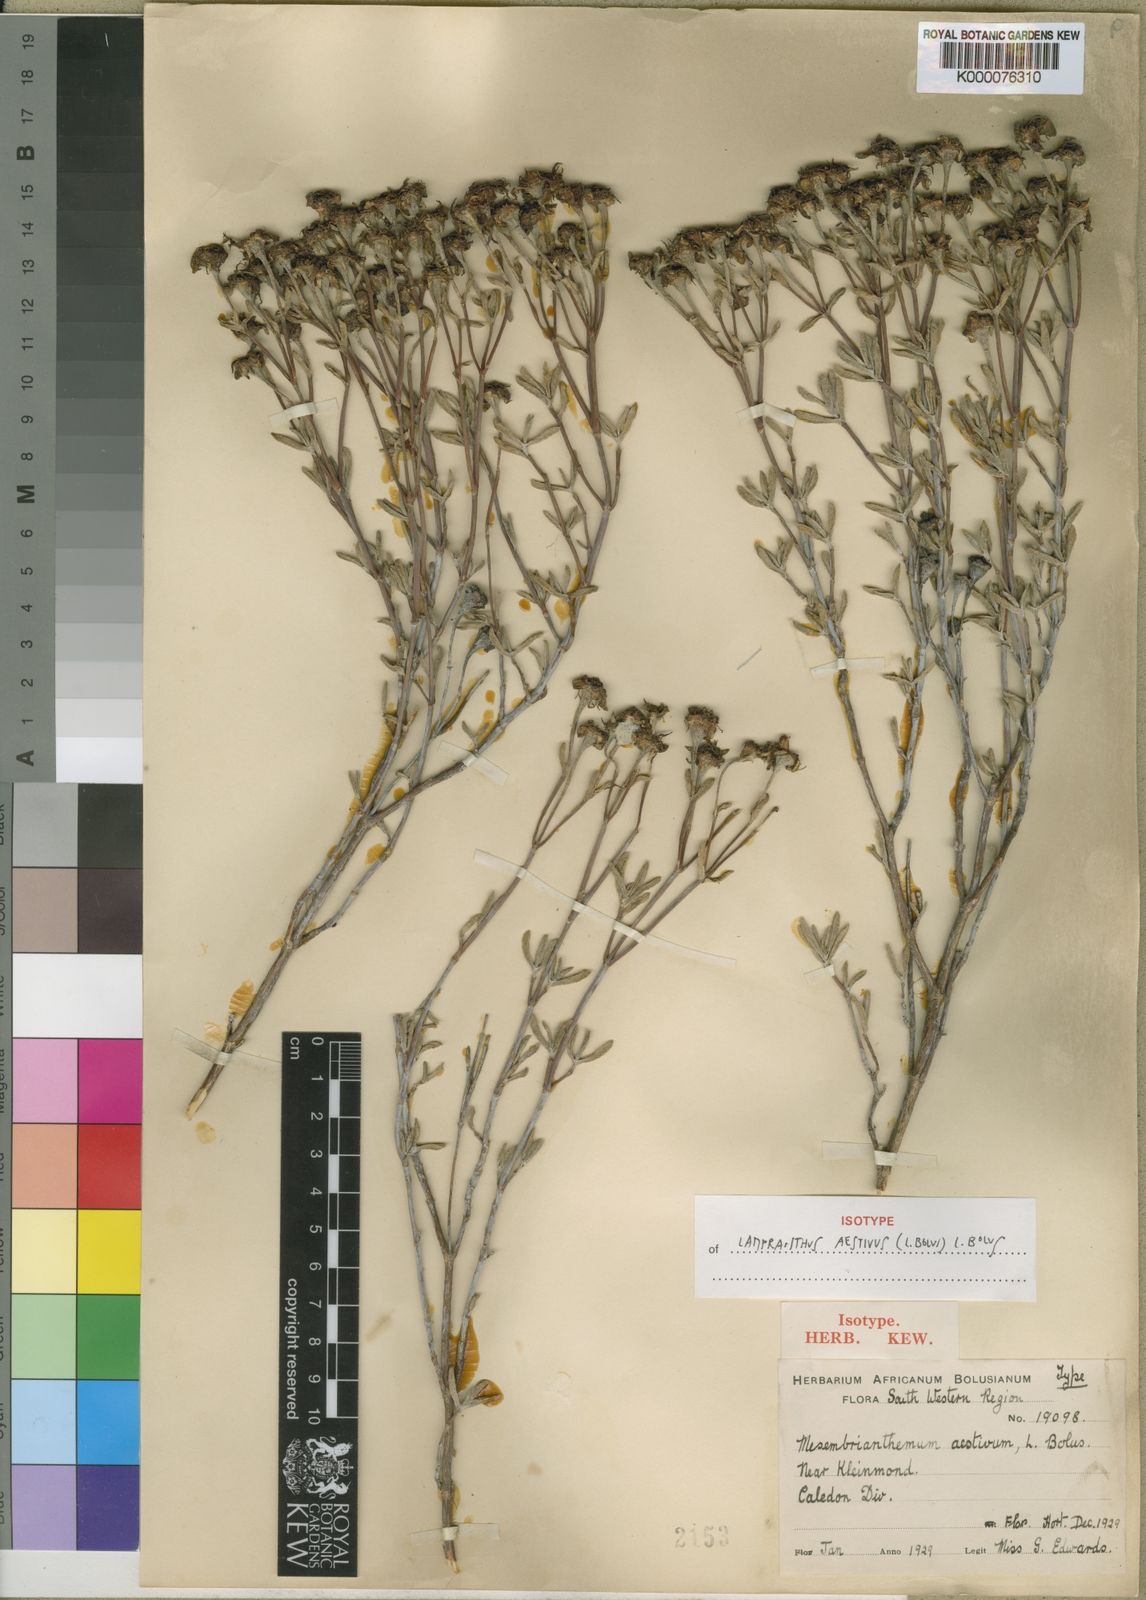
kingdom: Plantae
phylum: Tracheophyta
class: Magnoliopsida
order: Caryophyllales
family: Aizoaceae
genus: Lampranthus
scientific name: Lampranthus aestivus
